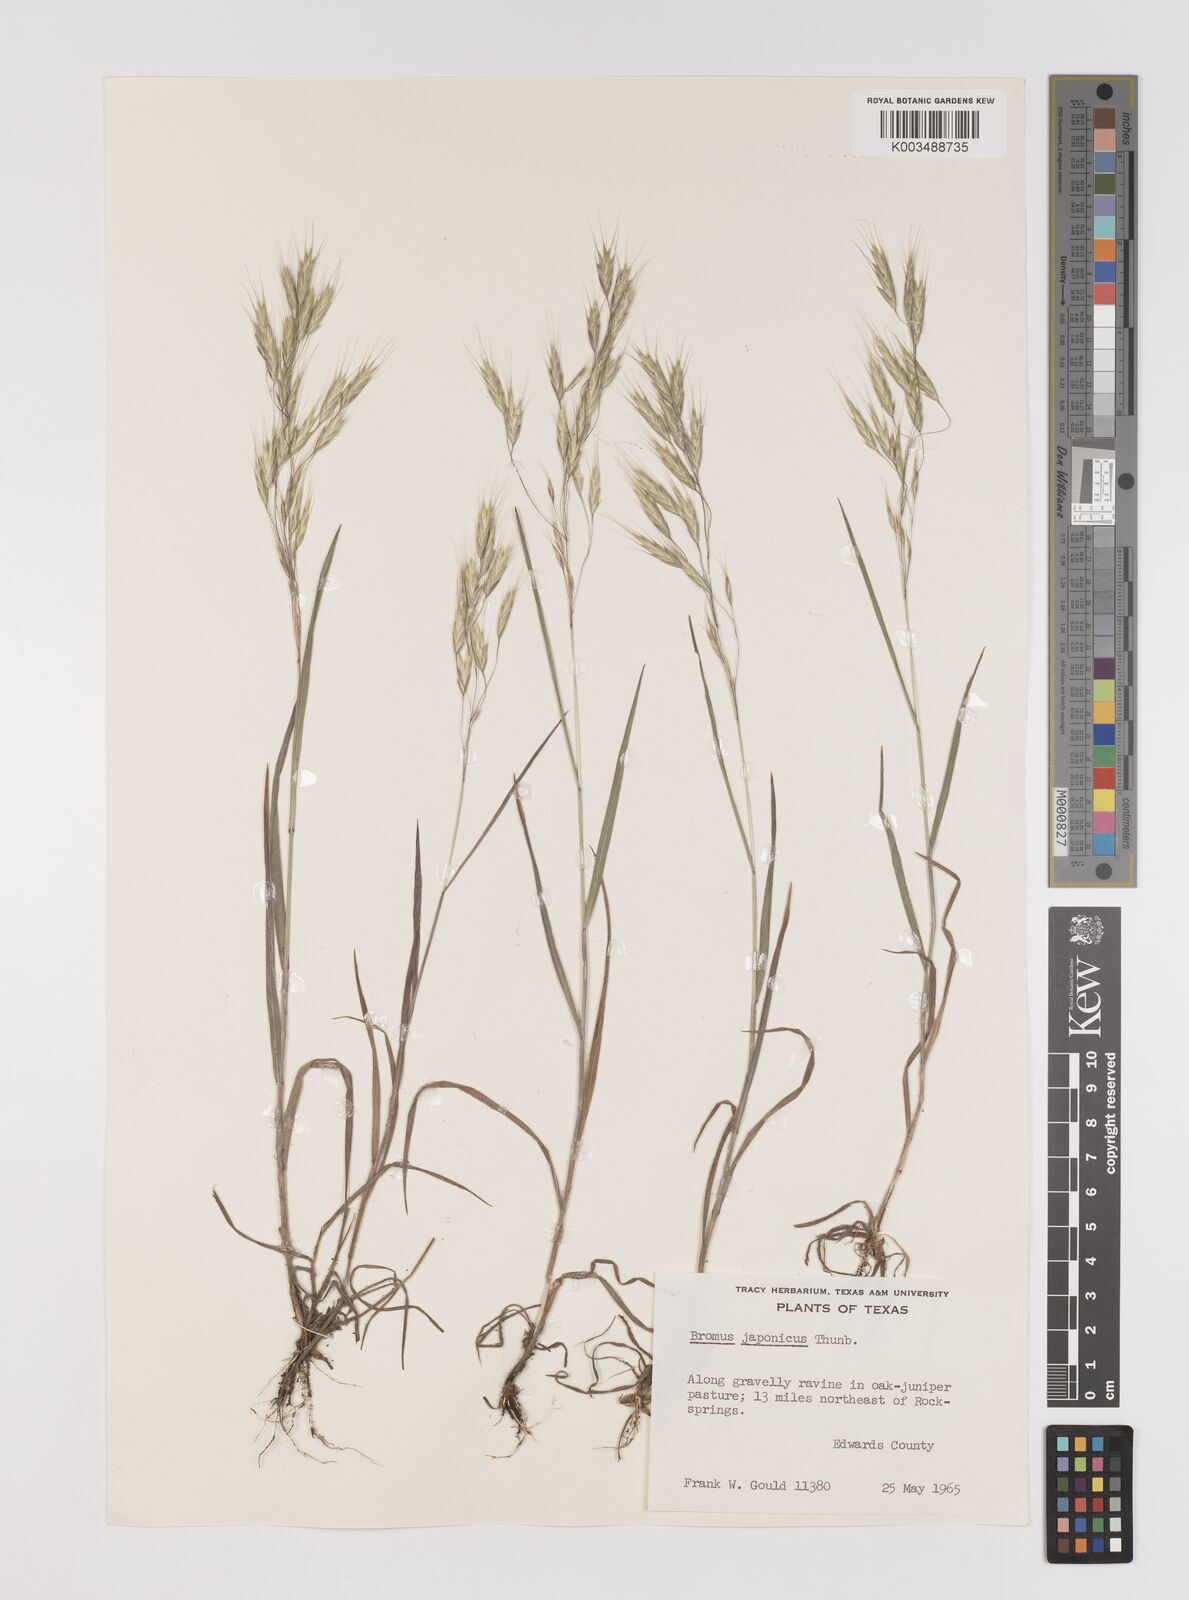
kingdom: Plantae
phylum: Tracheophyta
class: Liliopsida
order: Poales
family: Poaceae
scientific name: Poaceae
